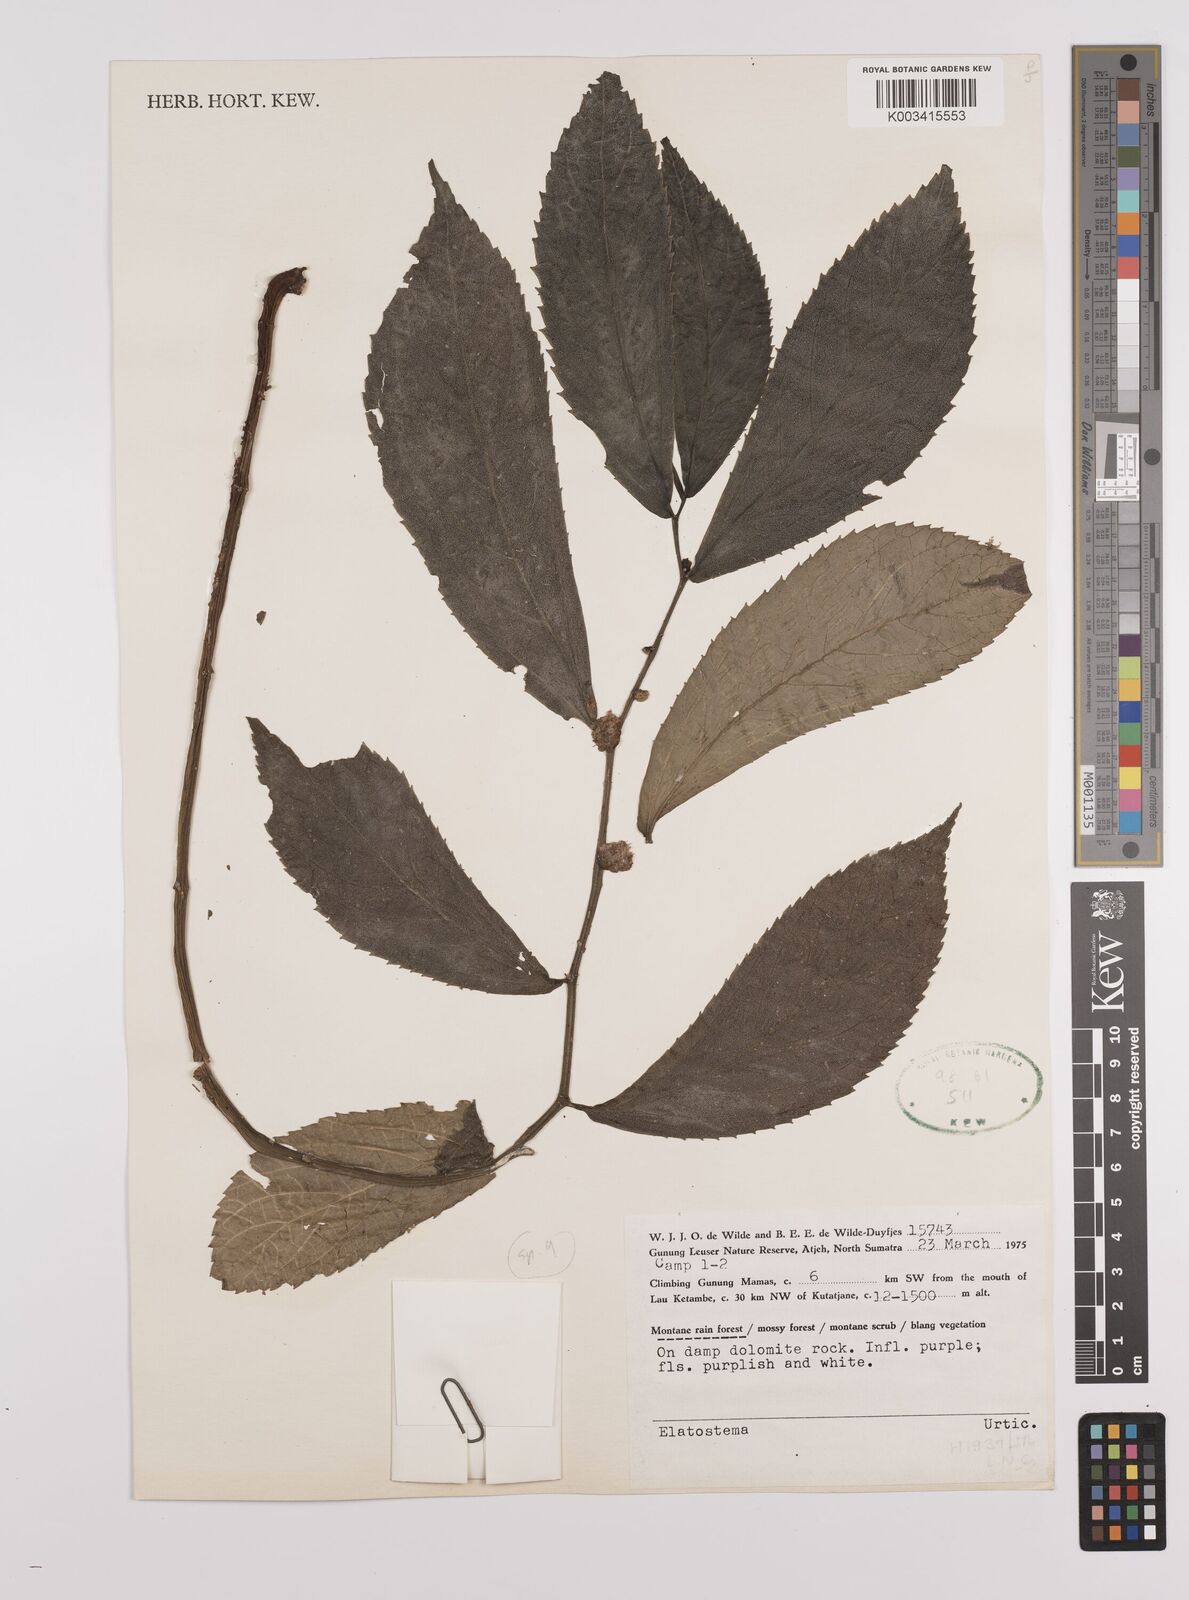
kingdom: Plantae
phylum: Tracheophyta
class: Magnoliopsida
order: Rosales
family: Urticaceae
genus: Elatostema
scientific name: Elatostema
